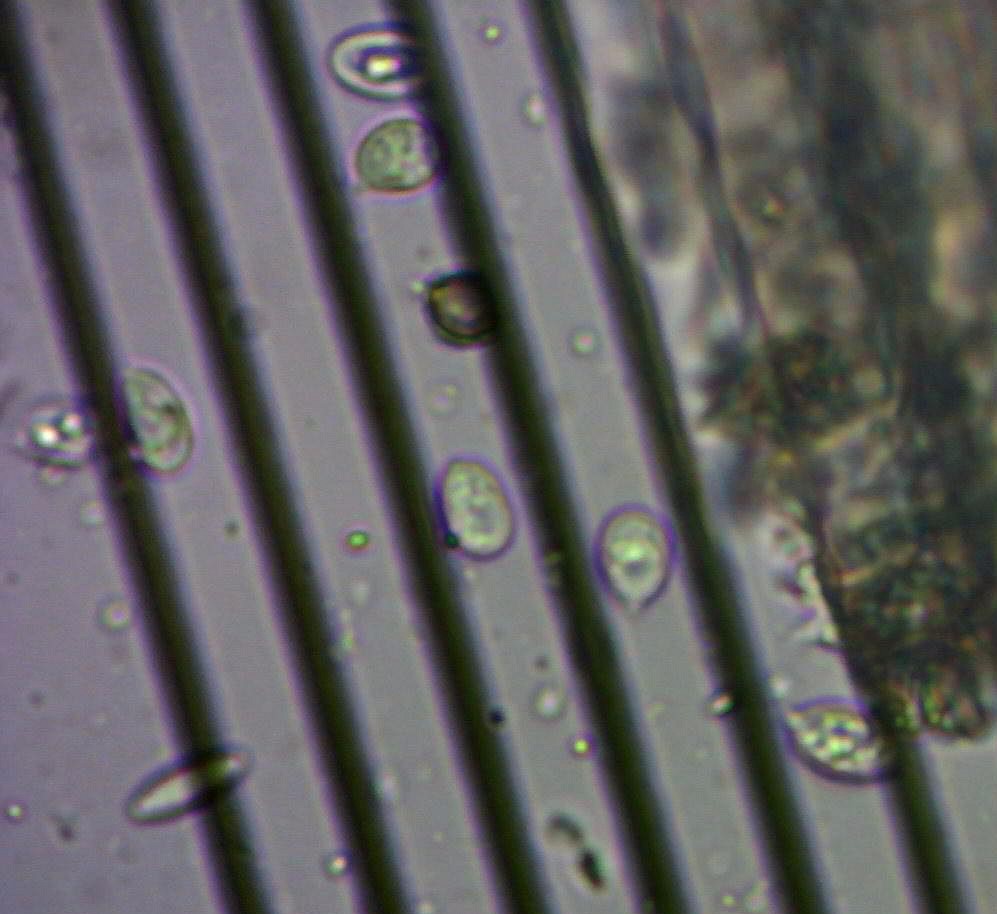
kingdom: Fungi
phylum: Basidiomycota
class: Agaricomycetes
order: Agaricales
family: Entolomataceae
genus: Clitopilus
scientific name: Clitopilus hobsonii
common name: Miller's oysterling
